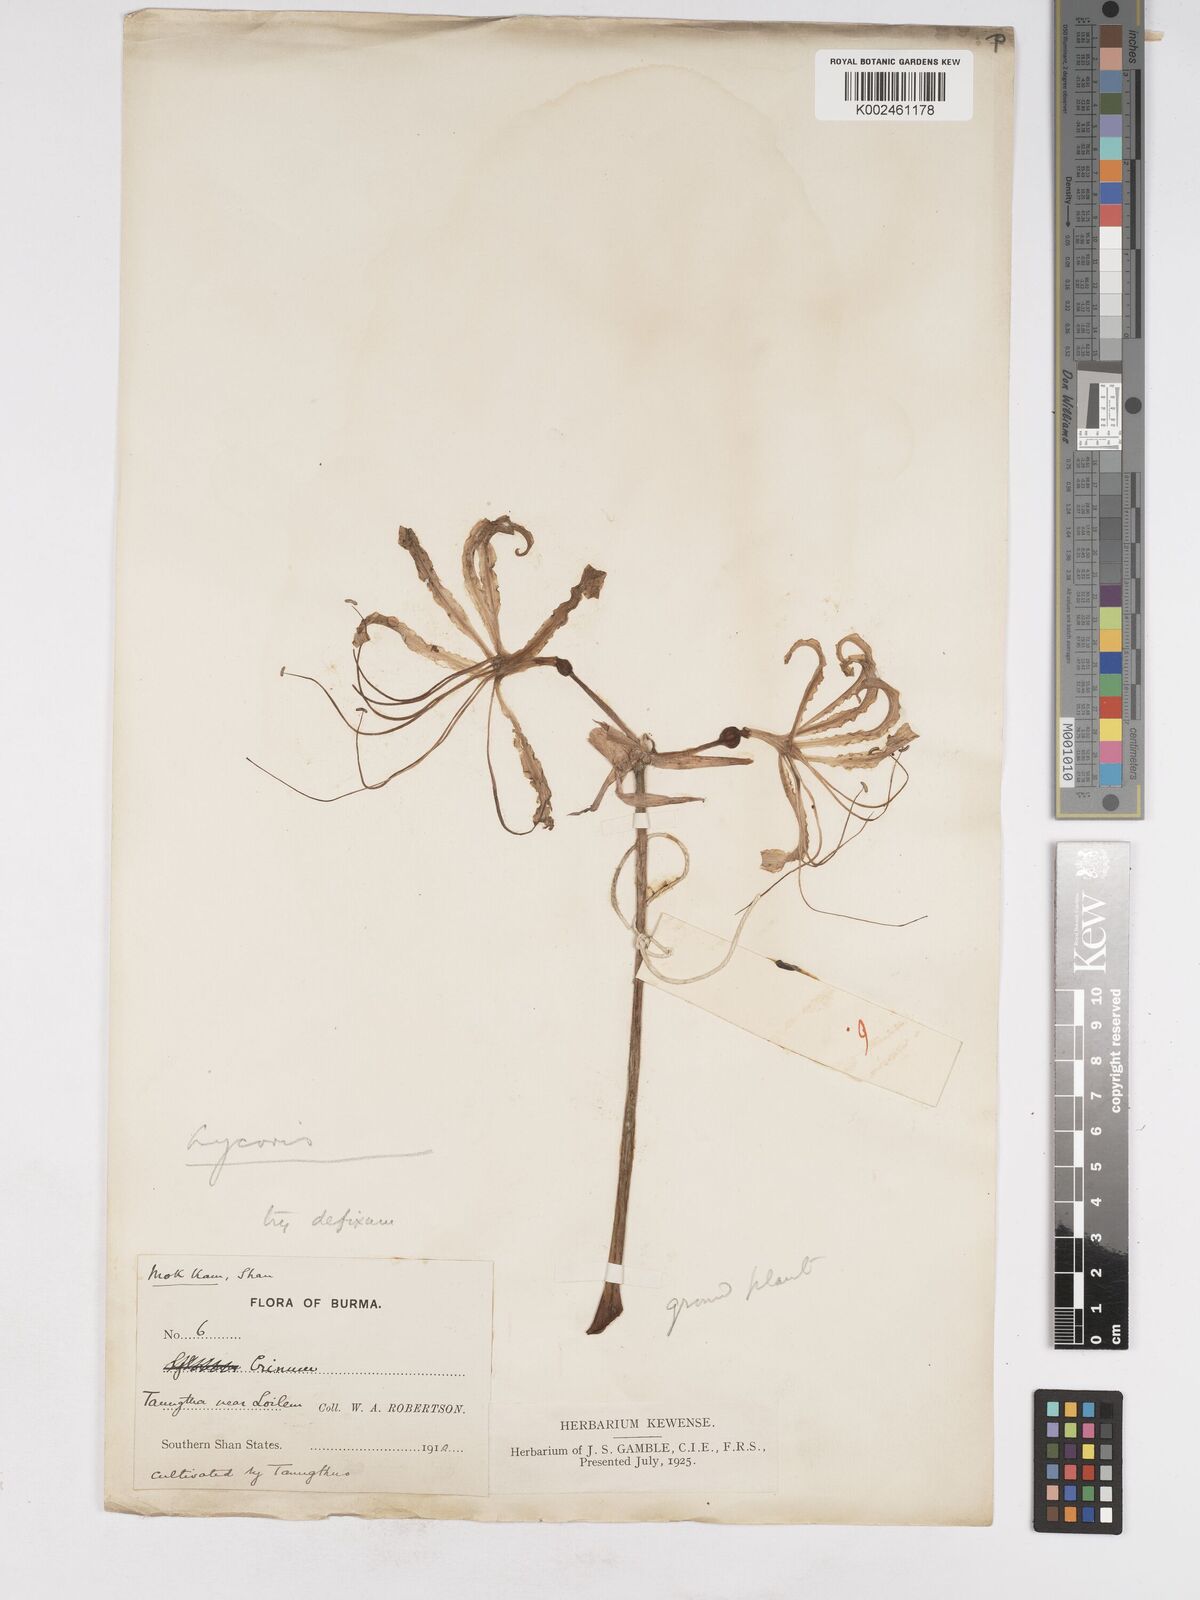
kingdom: Plantae
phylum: Tracheophyta
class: Liliopsida
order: Asparagales
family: Amaryllidaceae
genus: Lycoris
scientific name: Lycoris aurea
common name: Golden hurricane-lily
